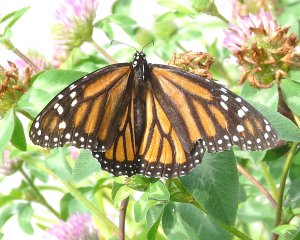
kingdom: Animalia
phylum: Arthropoda
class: Insecta
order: Lepidoptera
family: Nymphalidae
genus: Danaus
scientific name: Danaus plexippus
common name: Monarch
